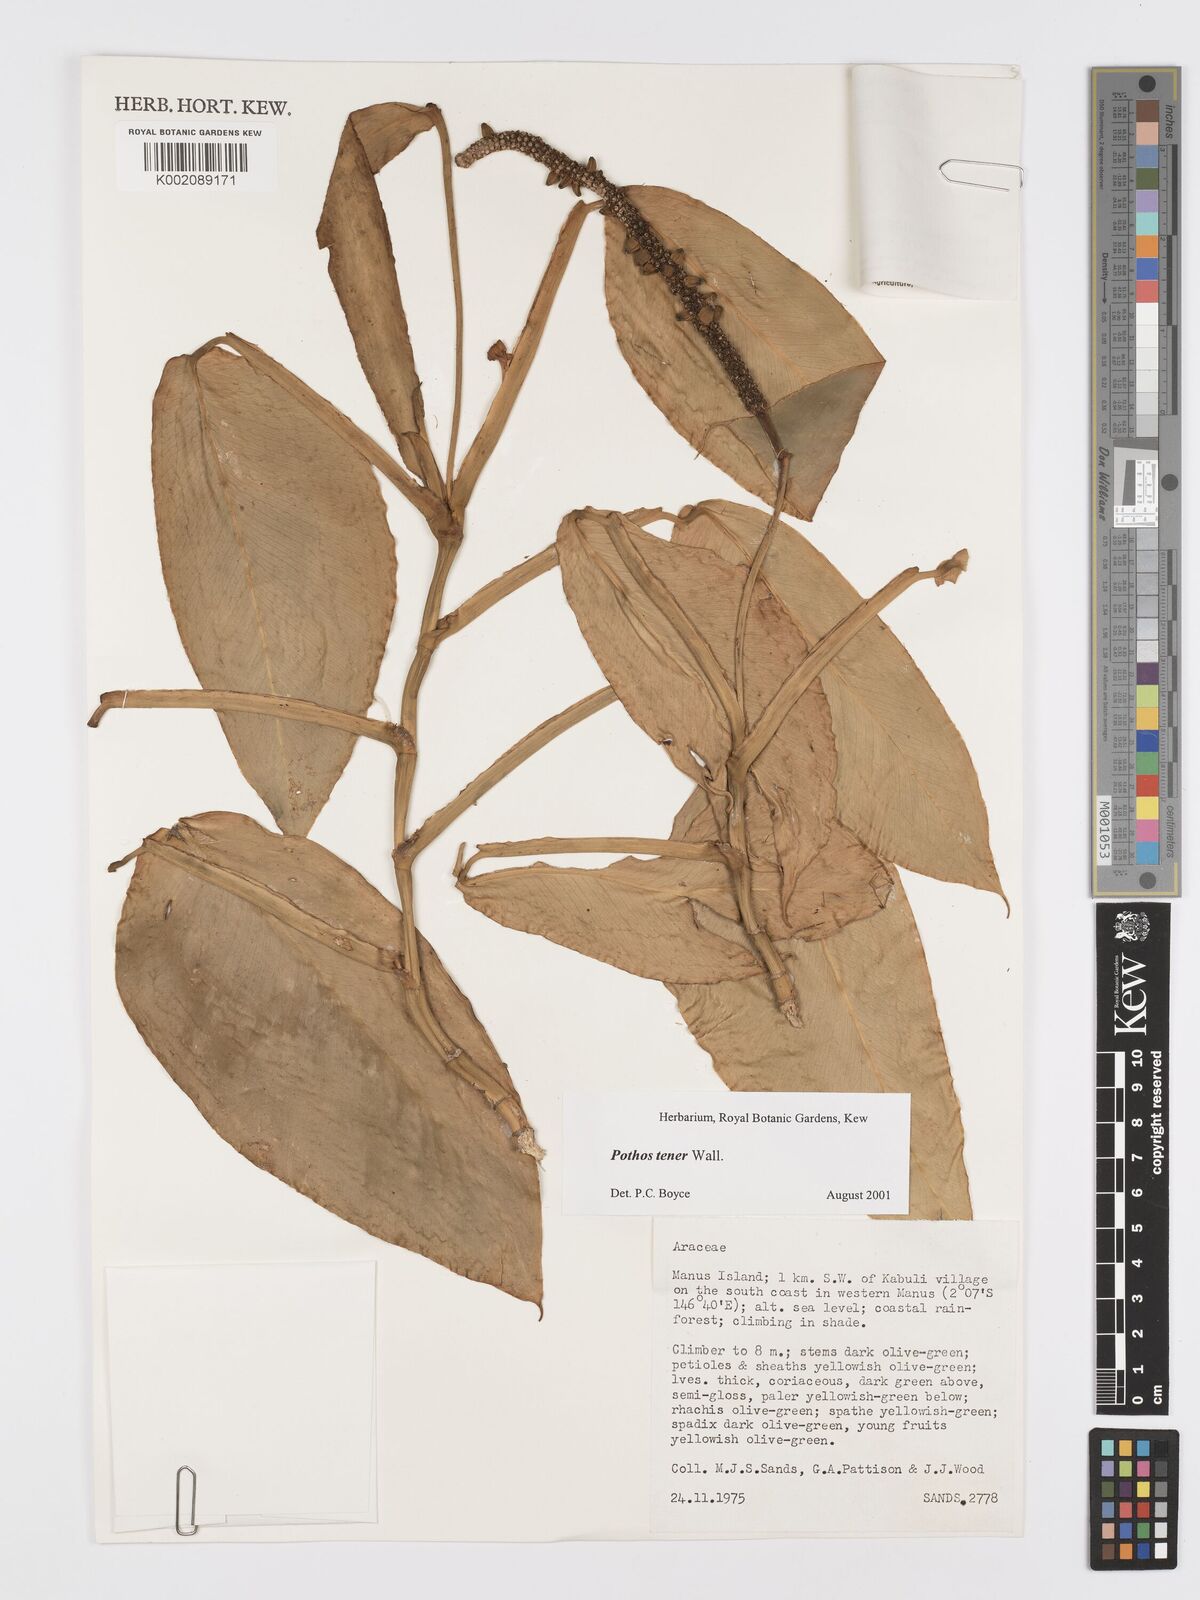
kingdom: Plantae
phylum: Tracheophyta
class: Liliopsida
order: Alismatales
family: Araceae
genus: Pothos
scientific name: Pothos tener
